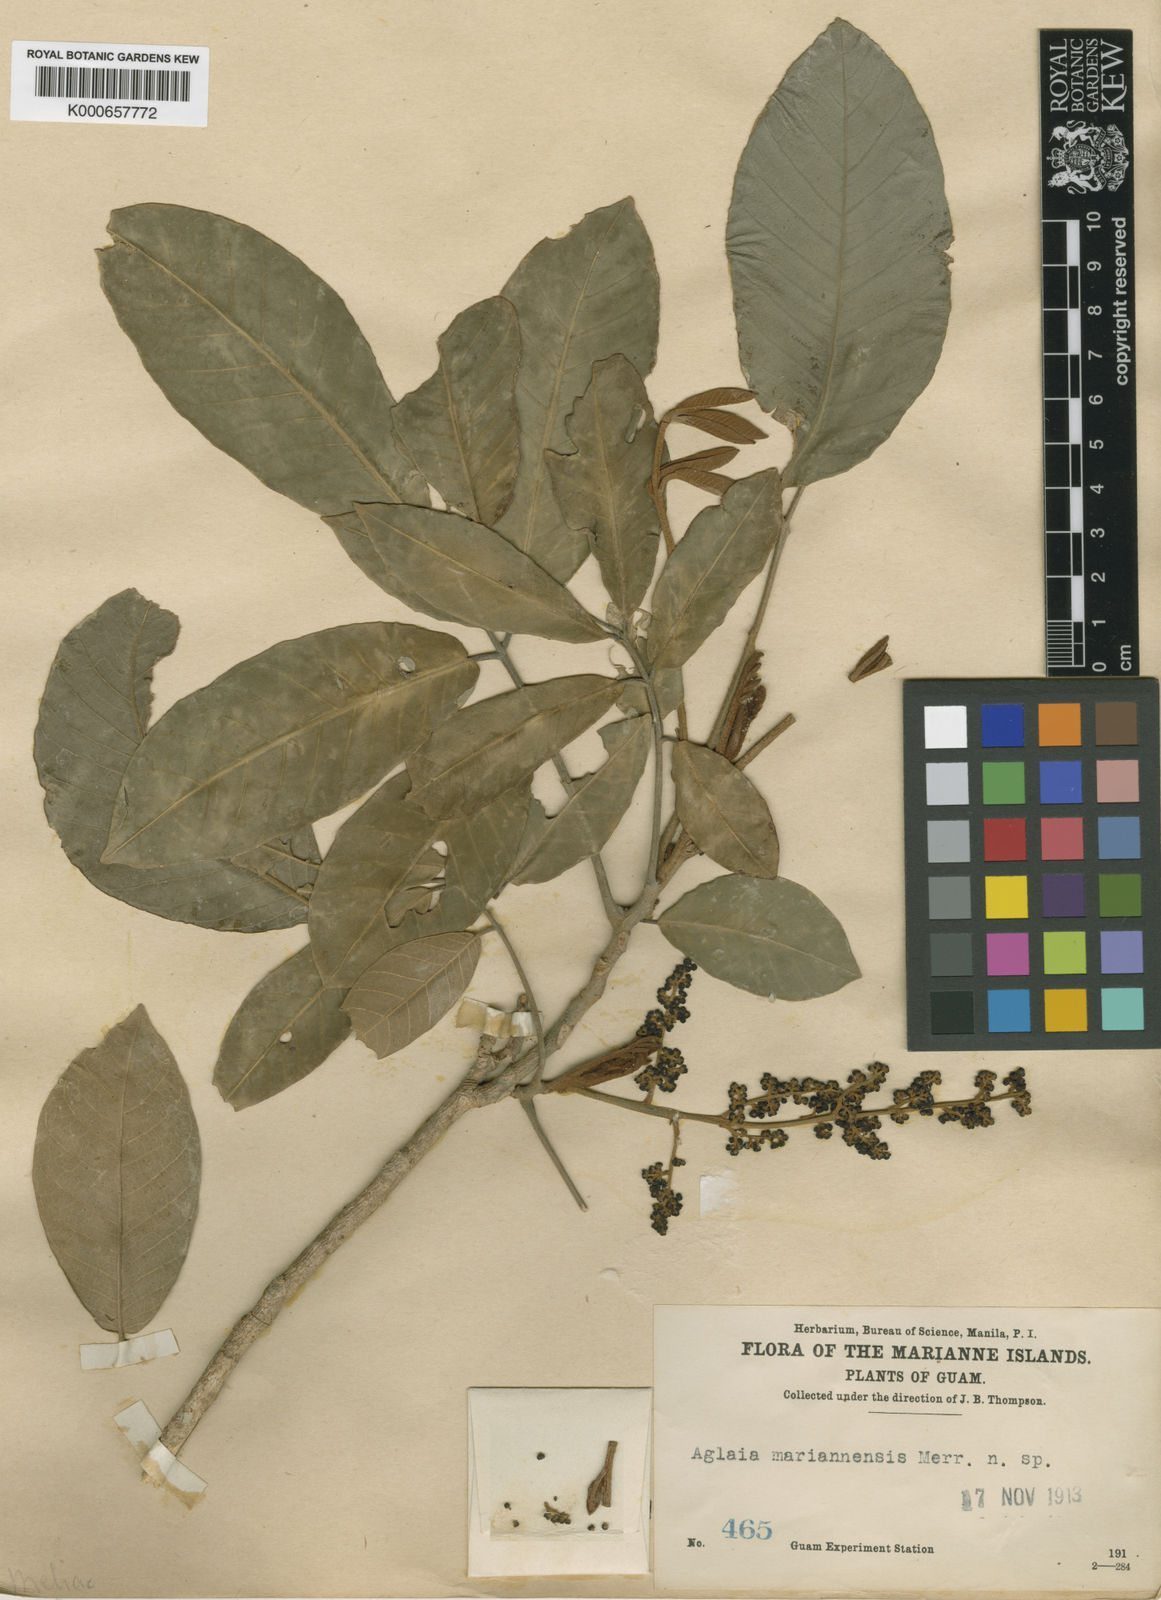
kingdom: Plantae
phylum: Tracheophyta
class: Magnoliopsida
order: Sapindales
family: Meliaceae
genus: Aglaia
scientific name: Aglaia mariannensis
